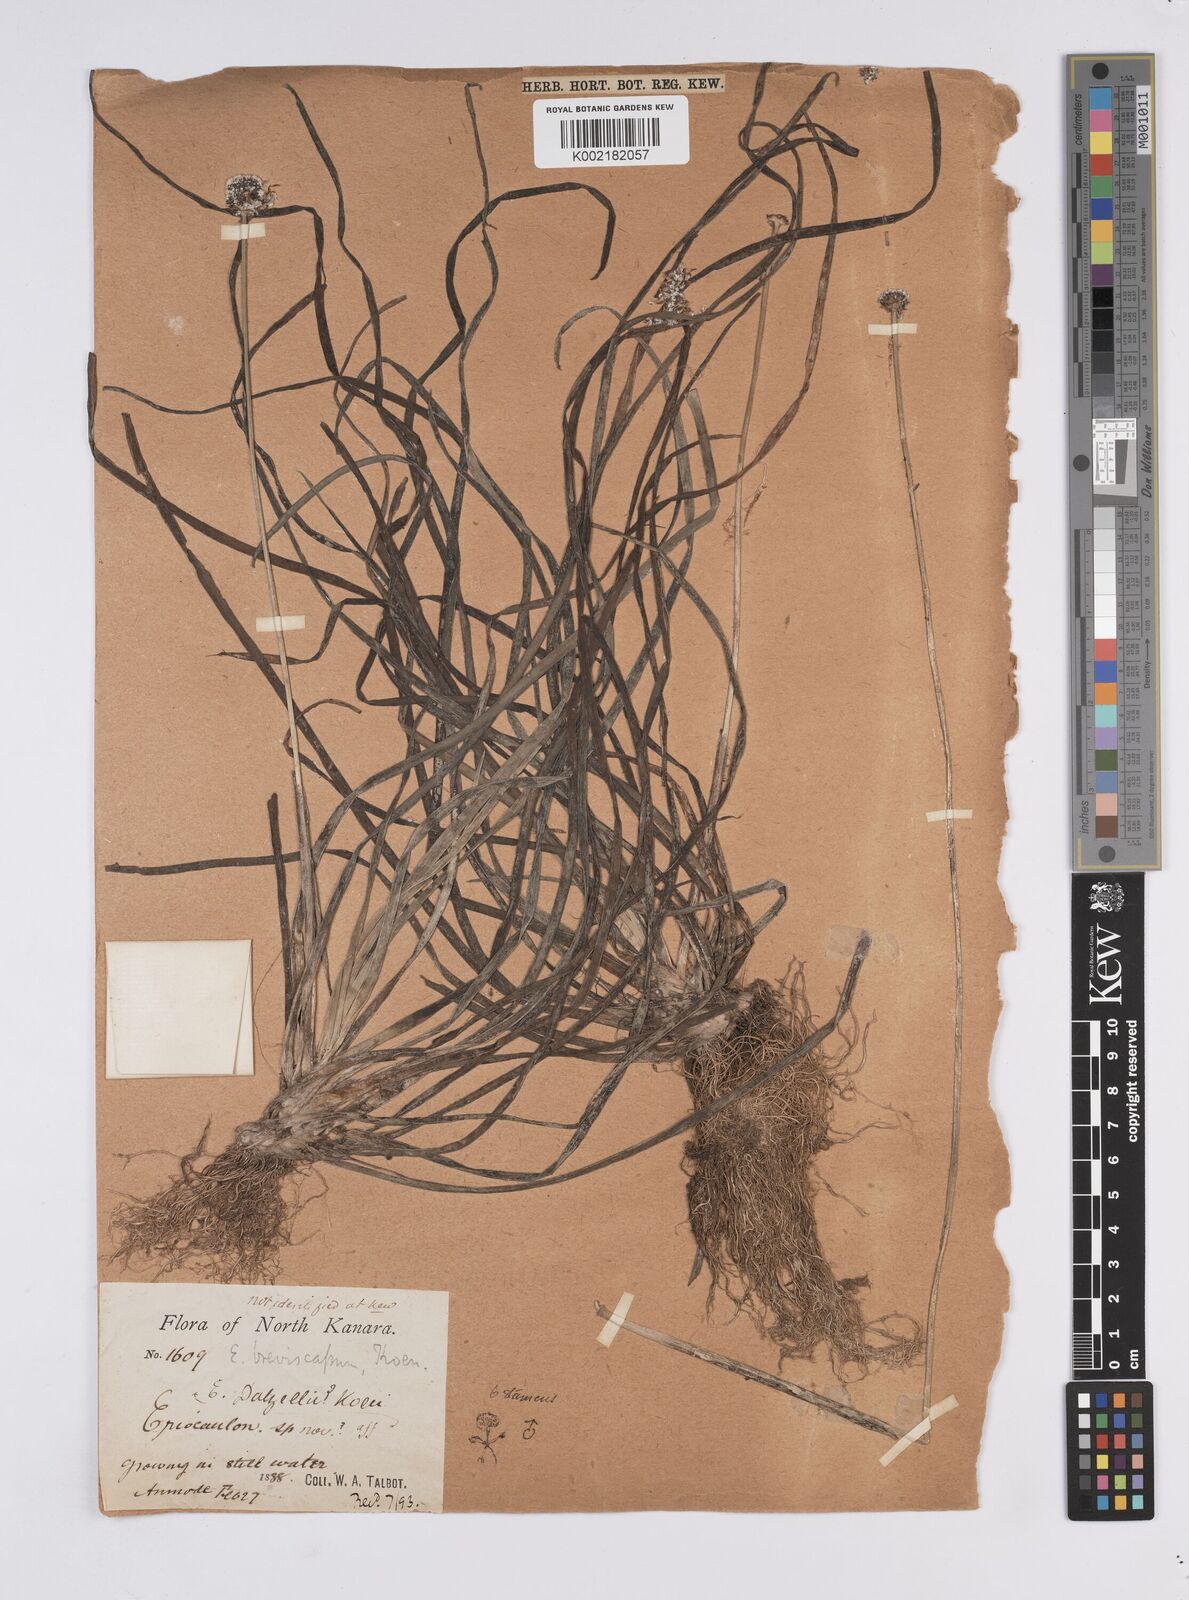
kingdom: Plantae
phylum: Tracheophyta
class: Liliopsida
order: Poales
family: Eriocaulaceae
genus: Eriocaulon
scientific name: Eriocaulon breviscapum
